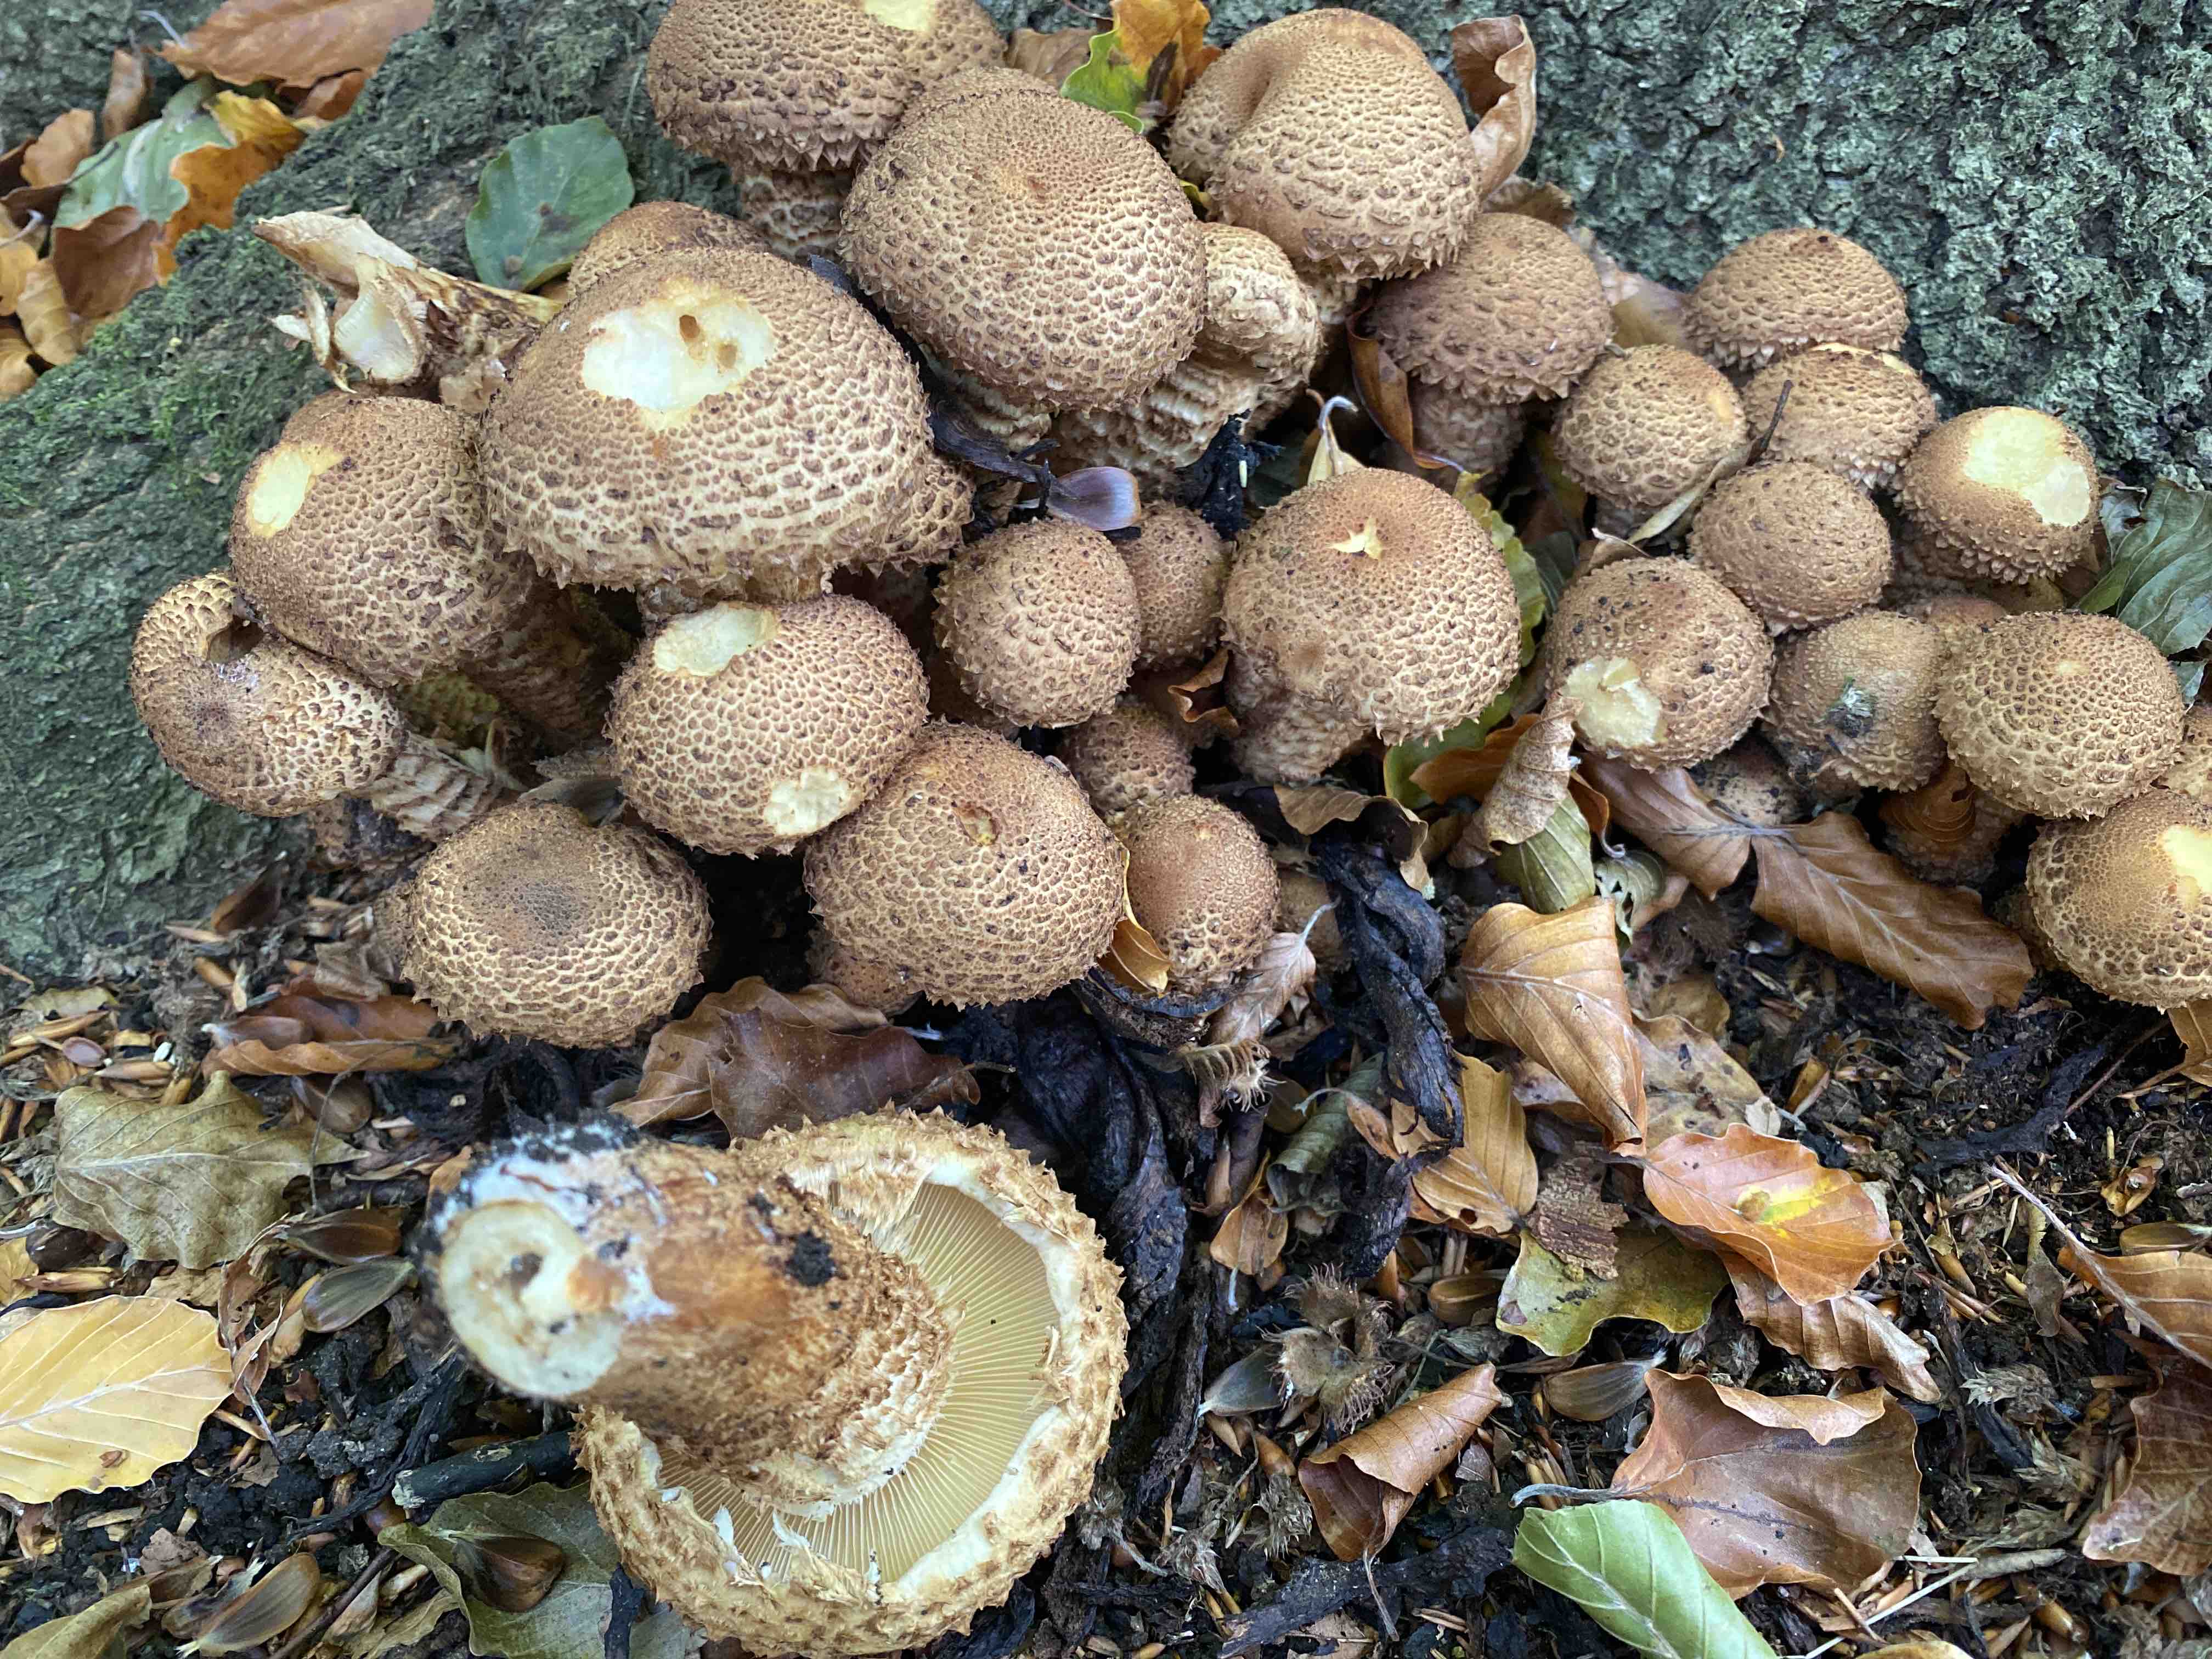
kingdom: Fungi
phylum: Basidiomycota
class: Agaricomycetes
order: Agaricales
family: Strophariaceae
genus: Pholiota
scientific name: Pholiota squarrosa
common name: krumskællet skælhat
